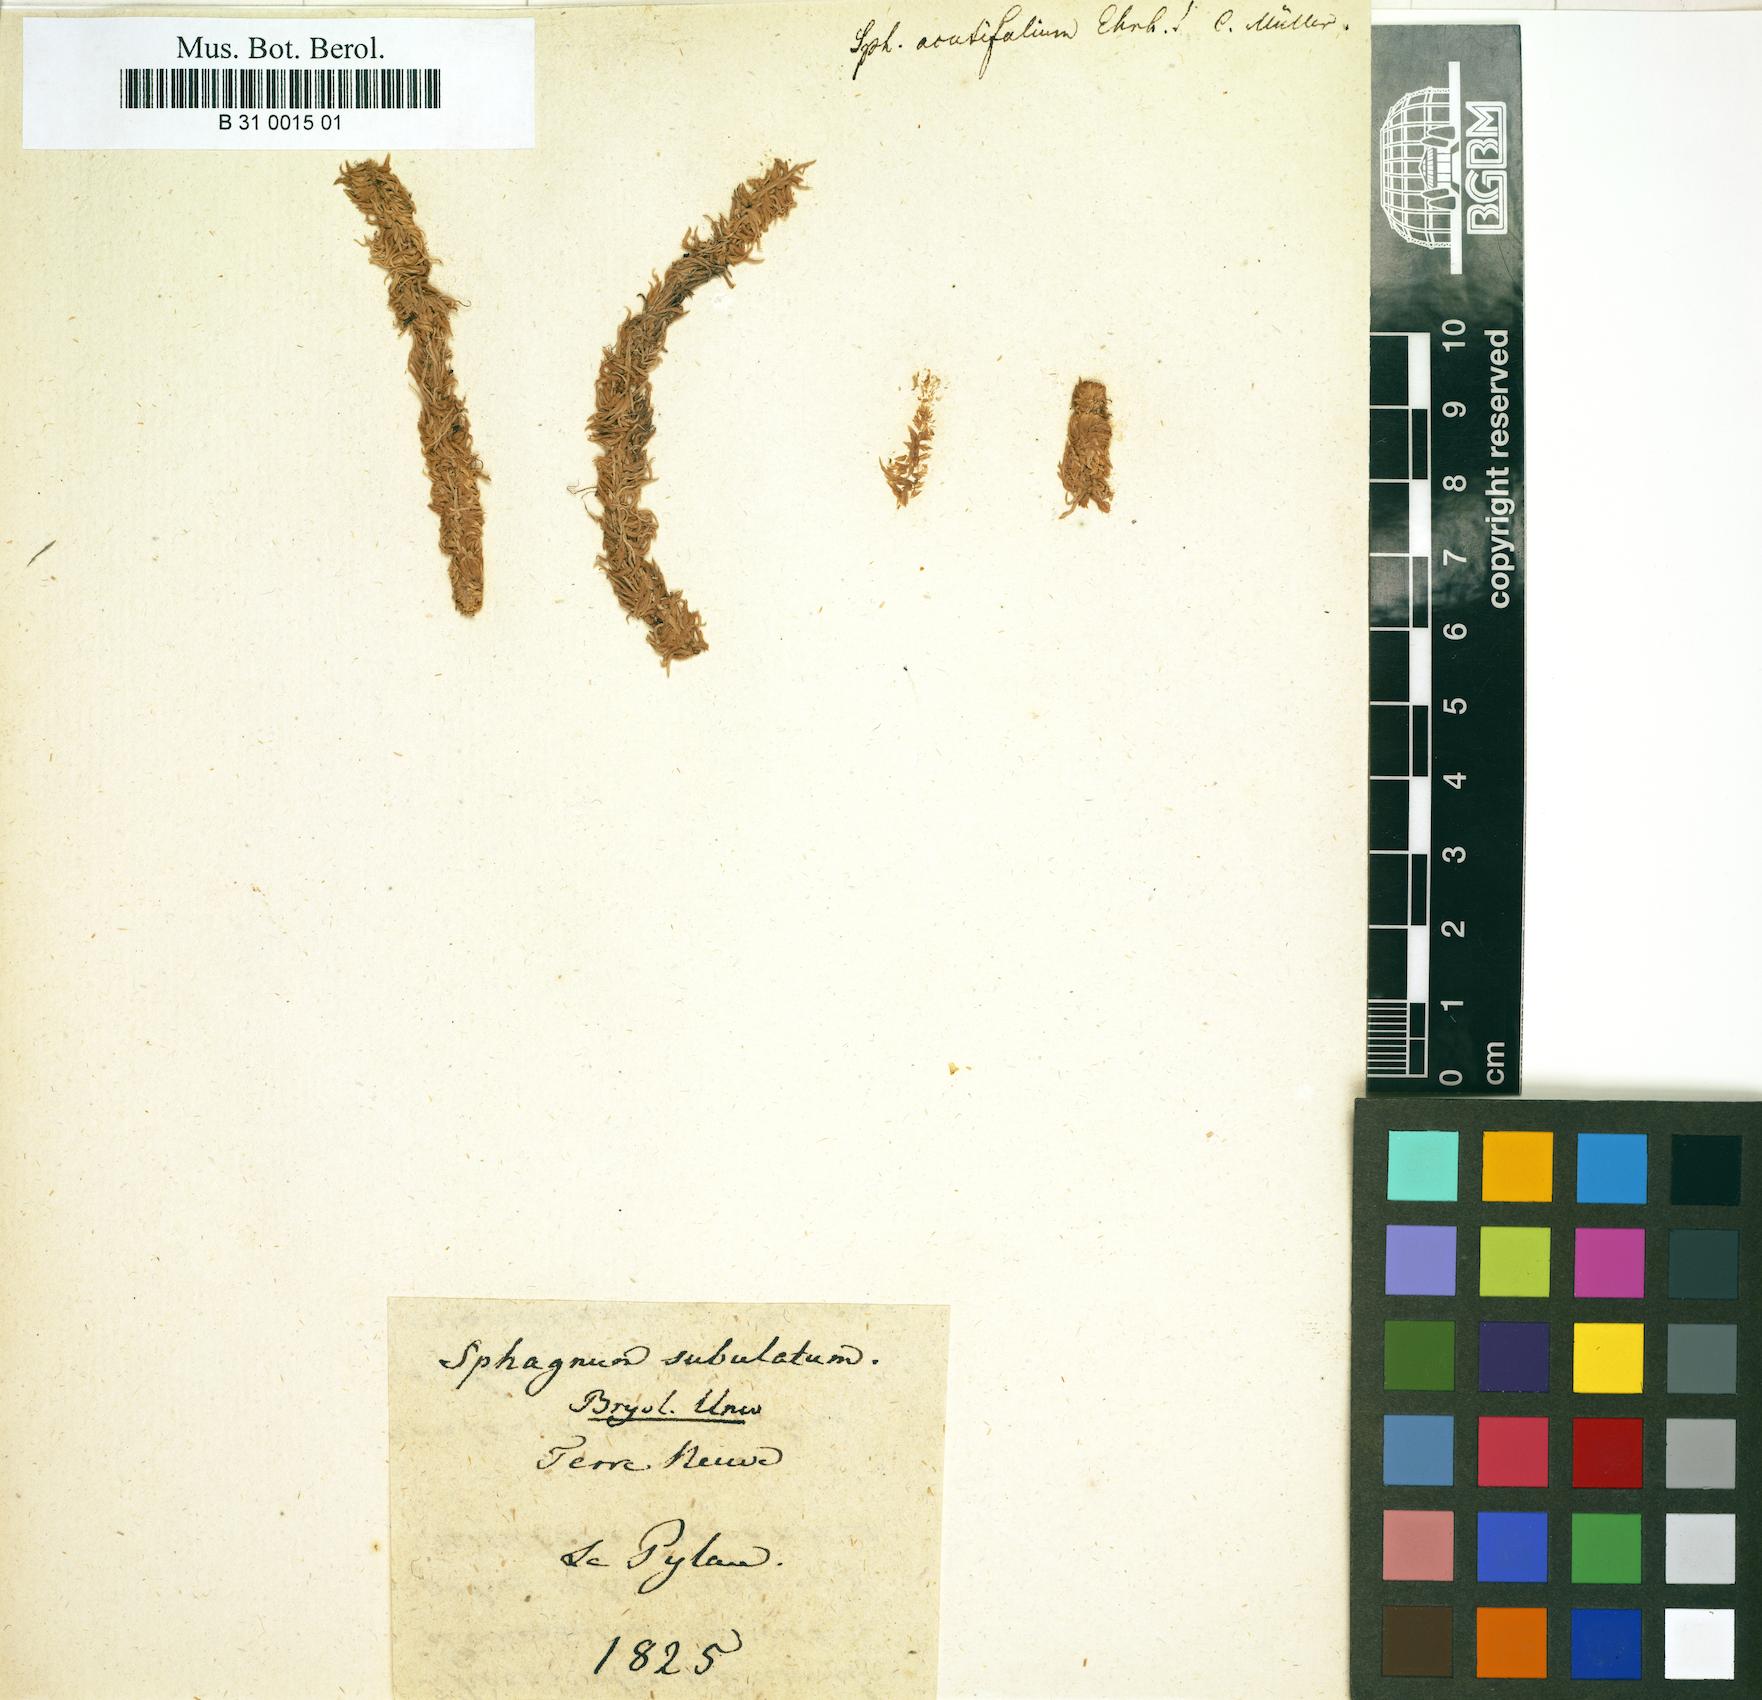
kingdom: Plantae
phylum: Bryophyta
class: Sphagnopsida
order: Sphagnales
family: Sphagnaceae
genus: Sphagnum
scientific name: Sphagnum capillifolium
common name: Small red peat moss
